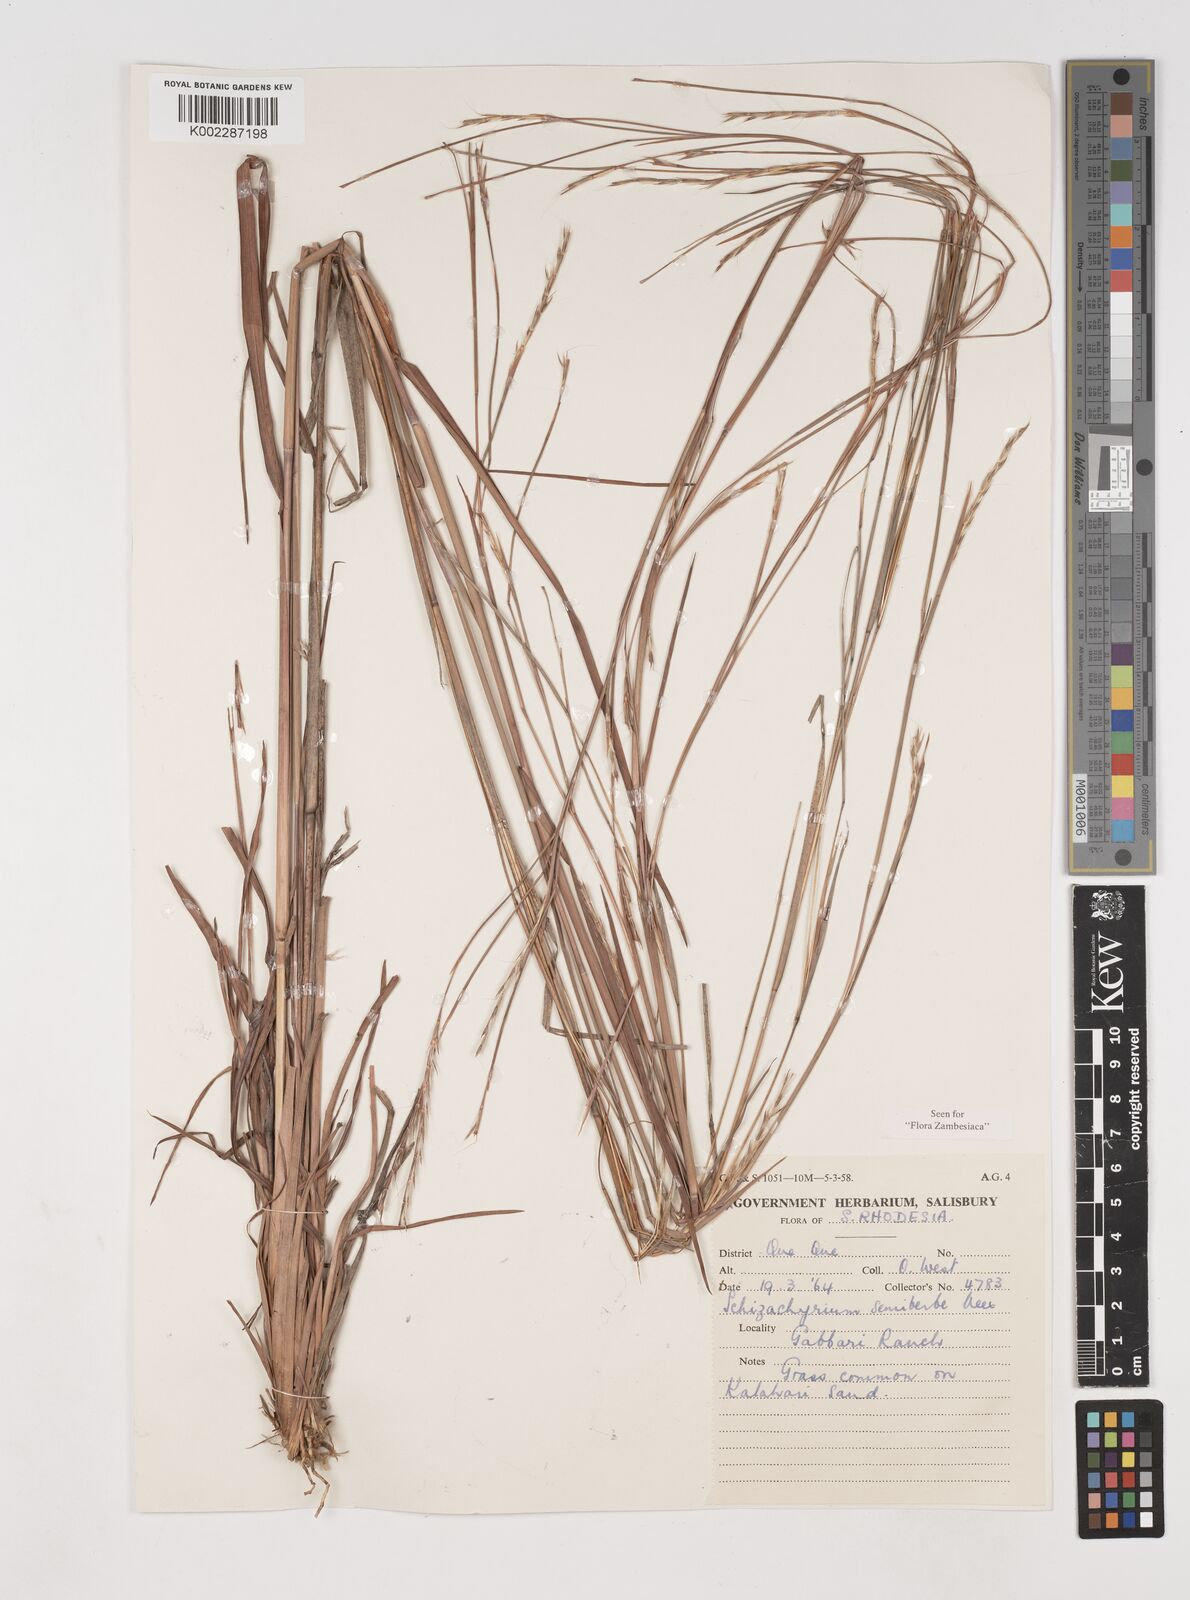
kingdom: Plantae
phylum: Tracheophyta
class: Liliopsida
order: Poales
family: Poaceae
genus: Schizachyrium
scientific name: Schizachyrium sanguineum
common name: Crimson bluestem
